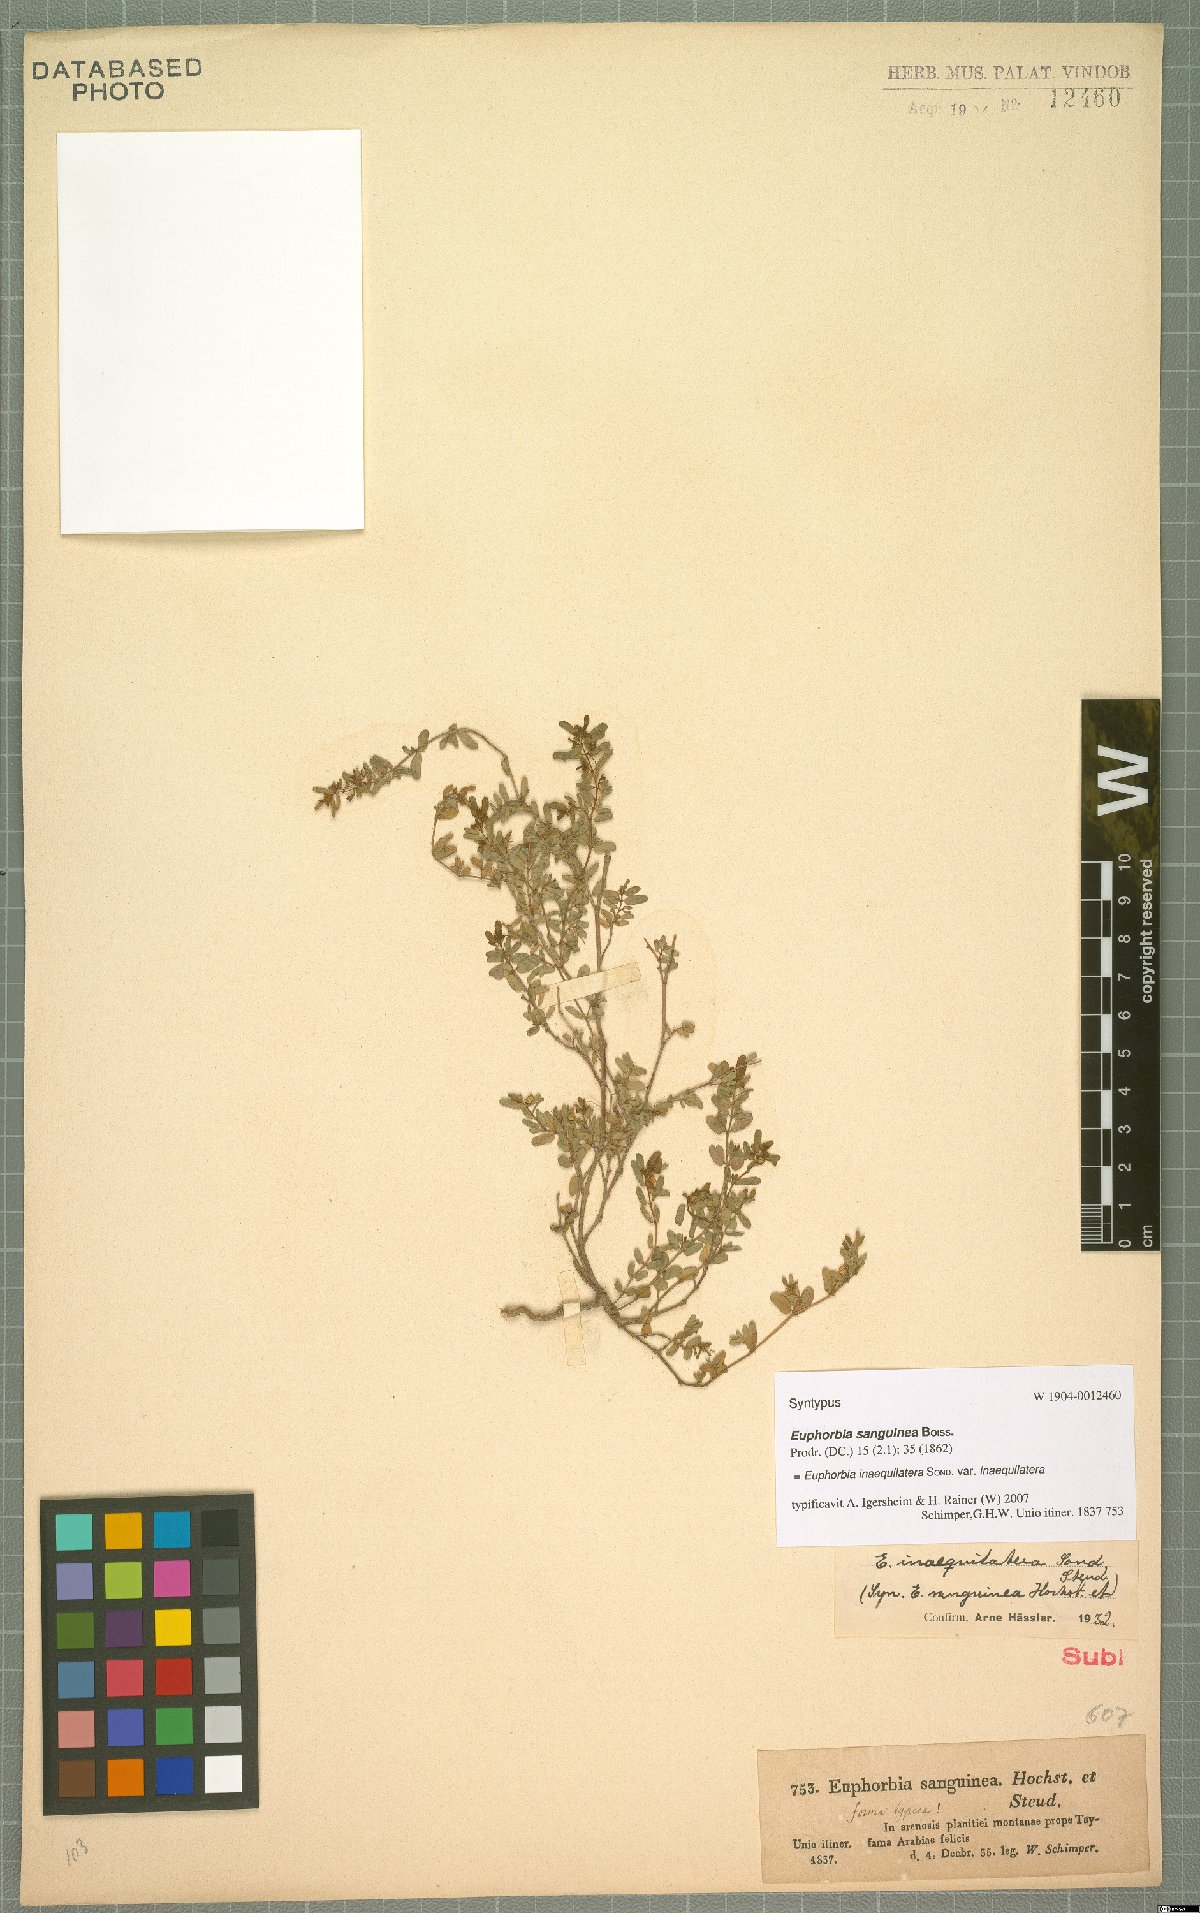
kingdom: Plantae
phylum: Tracheophyta
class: Magnoliopsida
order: Malpighiales
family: Euphorbiaceae
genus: Euphorbia
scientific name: Euphorbia inaequilatera
